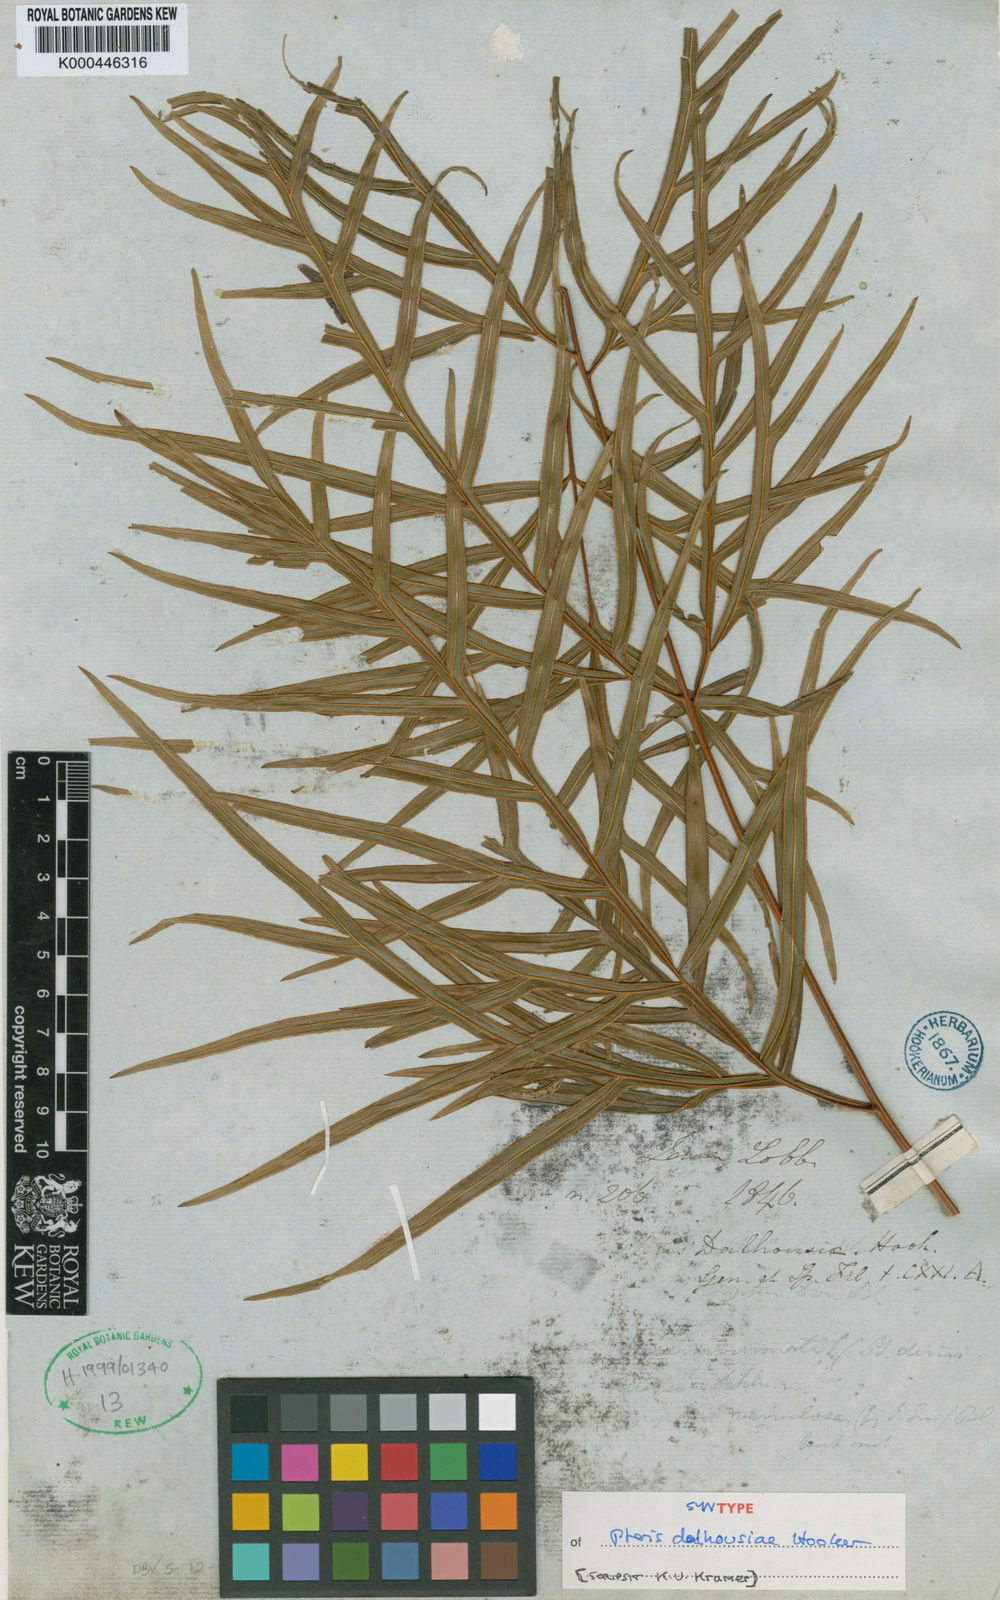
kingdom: Plantae
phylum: Tracheophyta
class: Polypodiopsida
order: Polypodiales
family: Pteridaceae
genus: Pteris
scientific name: Pteris dalhousieae
